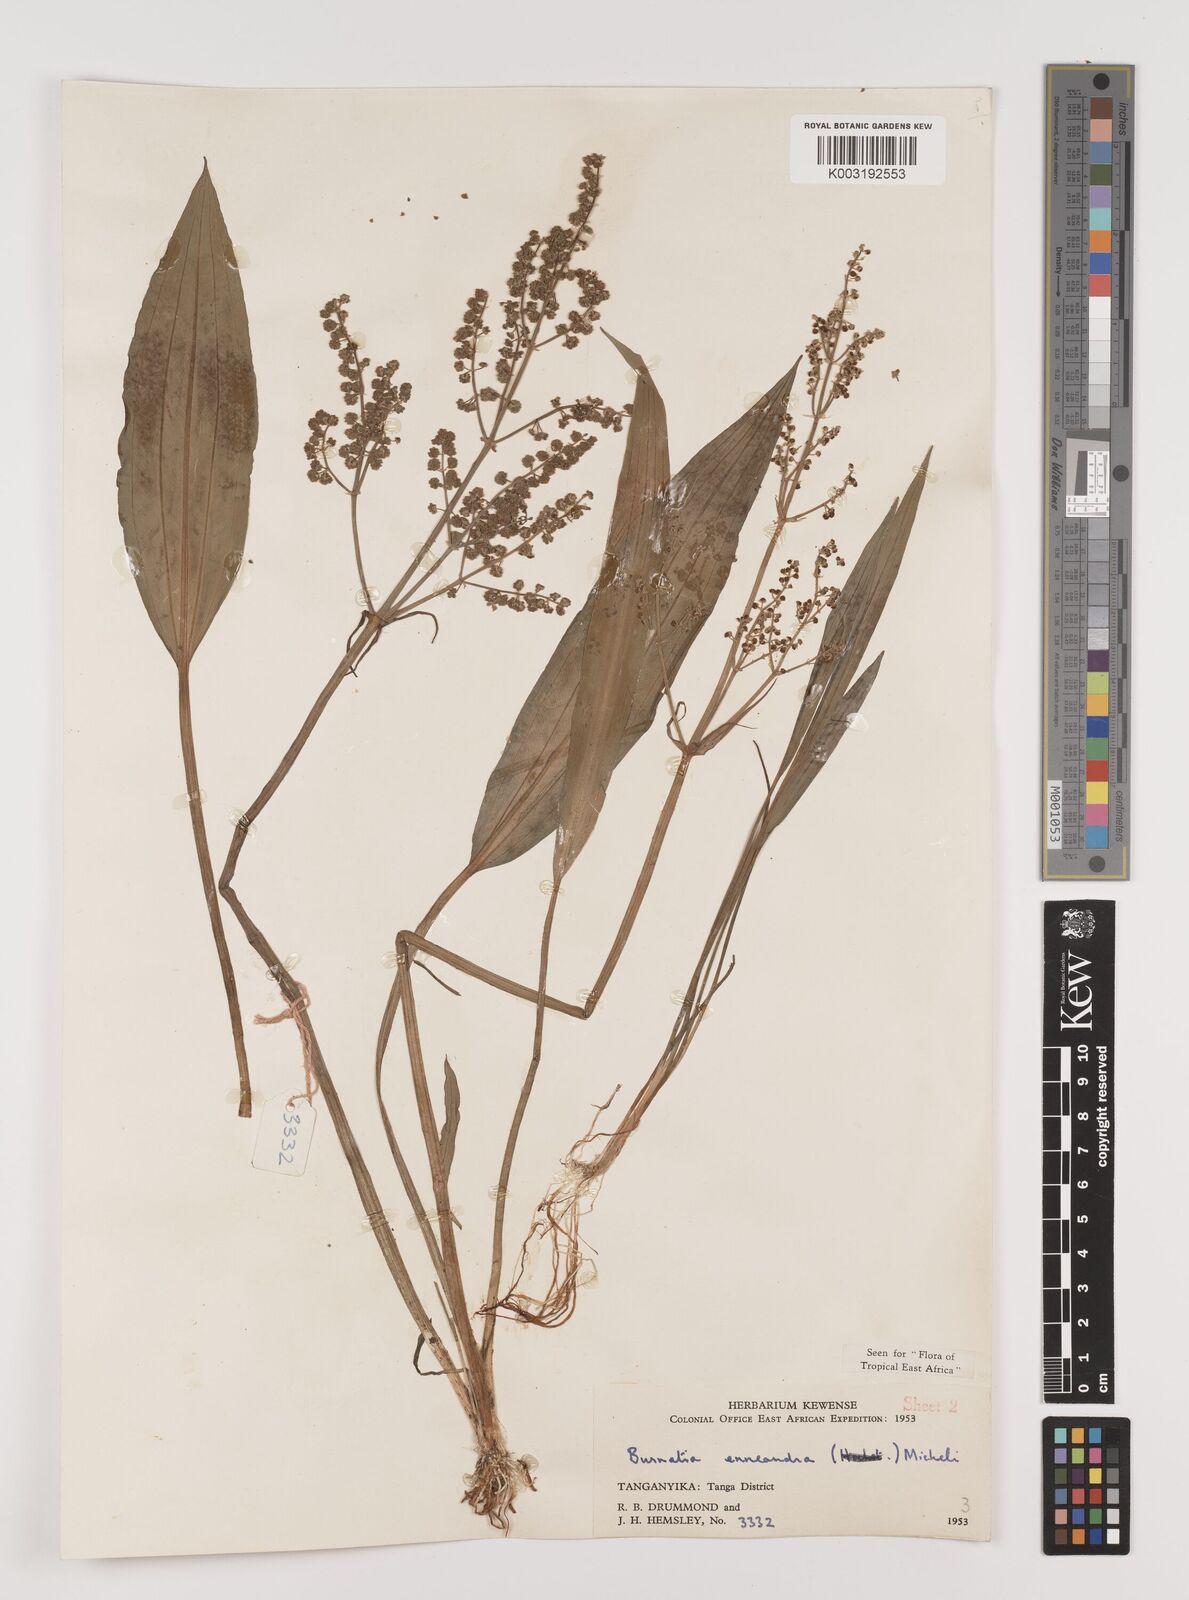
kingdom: Plantae
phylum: Tracheophyta
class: Liliopsida
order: Alismatales
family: Alismataceae
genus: Burnatia
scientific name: Burnatia enneandra
